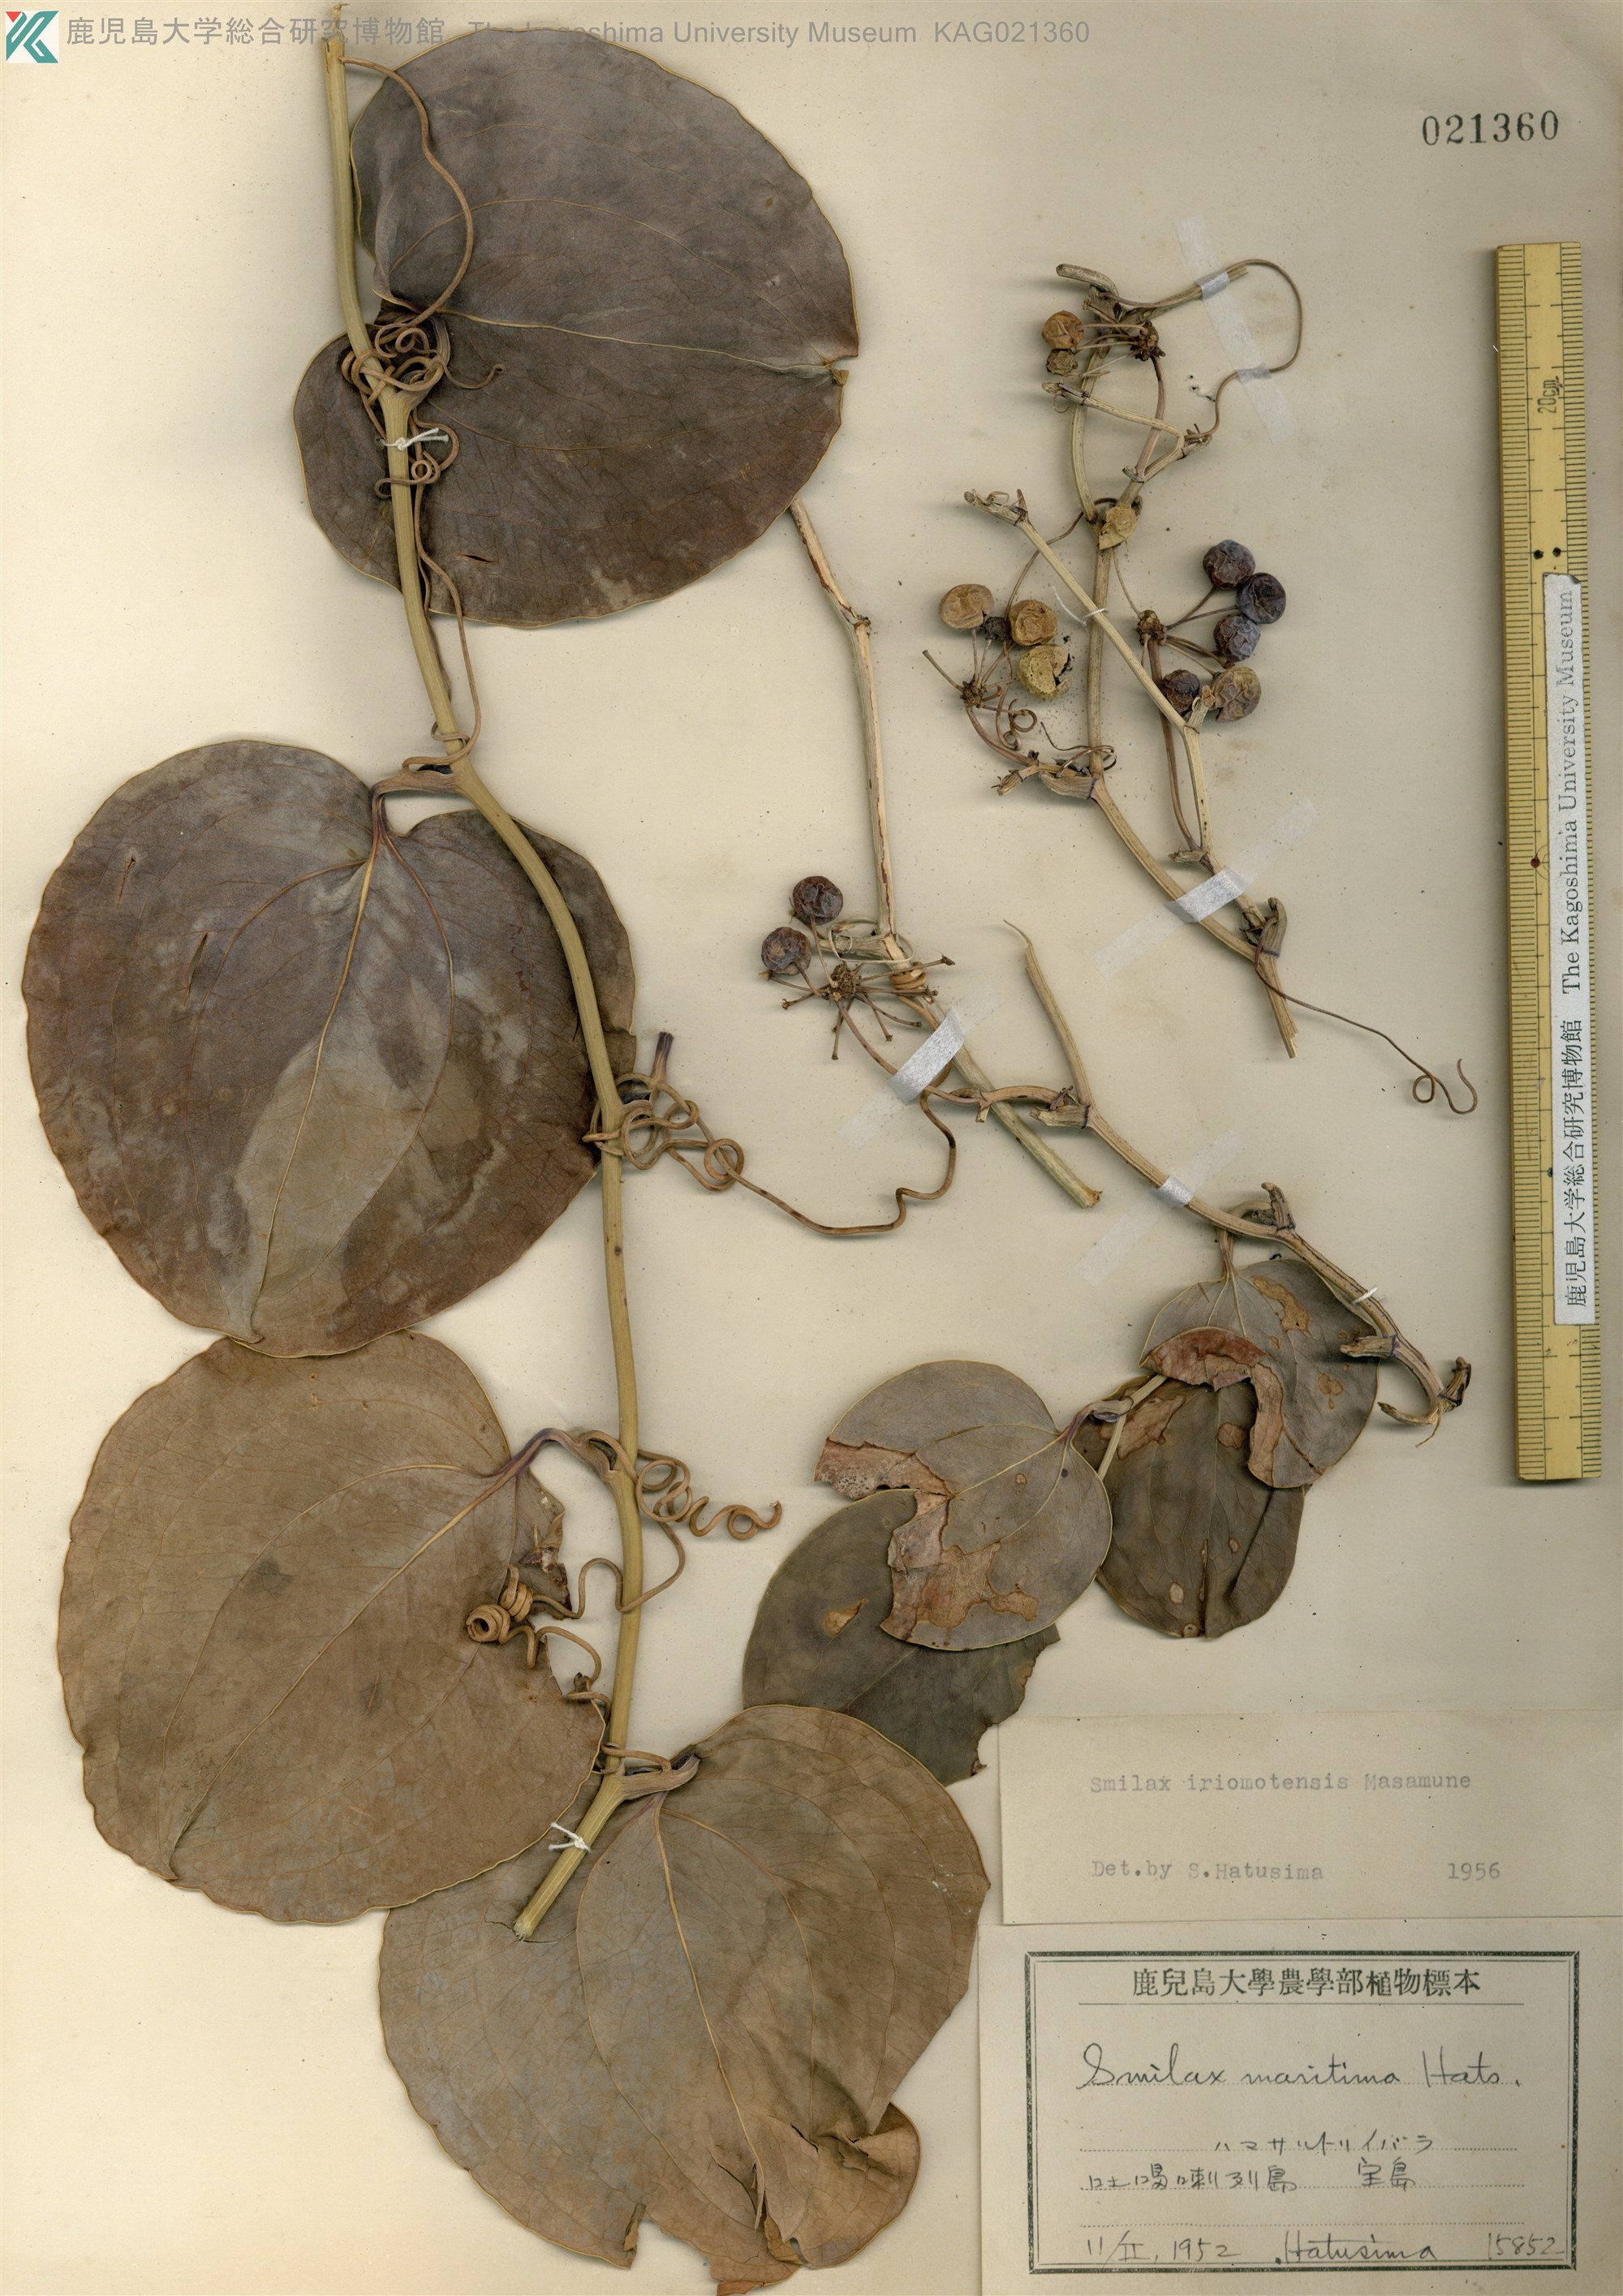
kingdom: Plantae
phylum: Tracheophyta
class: Liliopsida
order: Liliales
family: Smilacaceae
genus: Smilax
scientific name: Smilax sebeana
